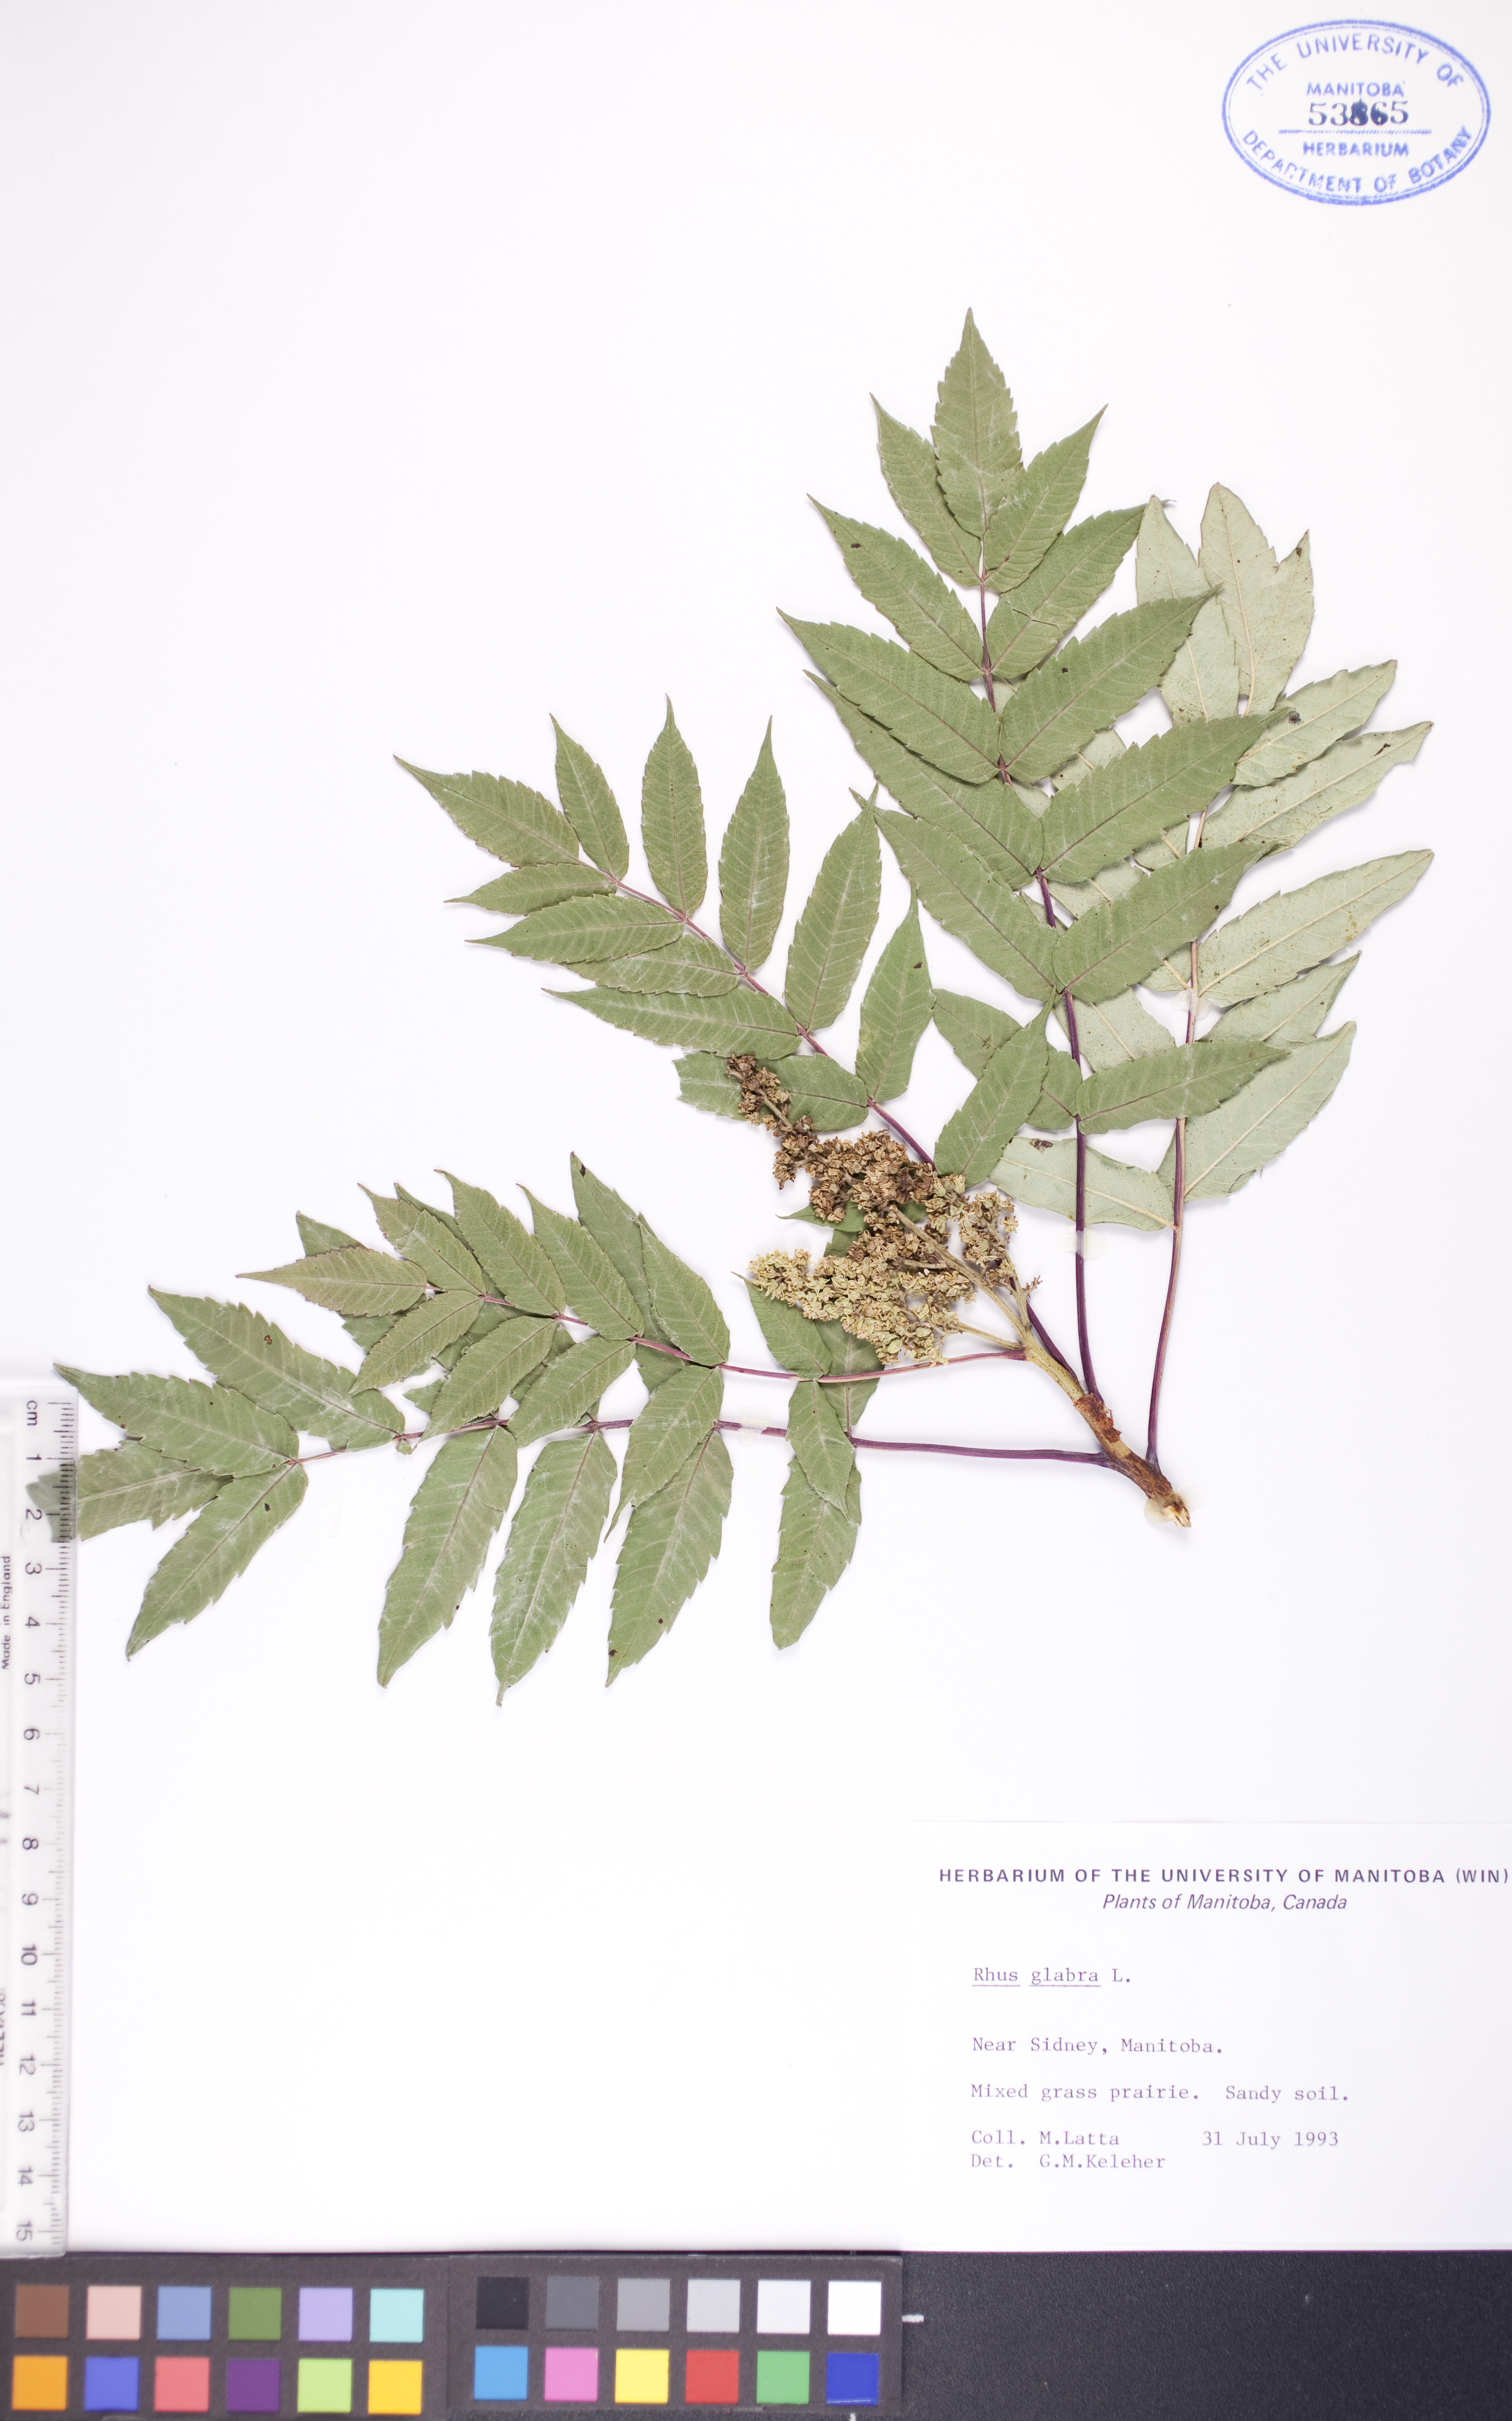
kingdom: Plantae
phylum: Tracheophyta
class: Magnoliopsida
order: Sapindales
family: Anacardiaceae
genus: Rhus
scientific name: Rhus glabra
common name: Scarlet sumac
